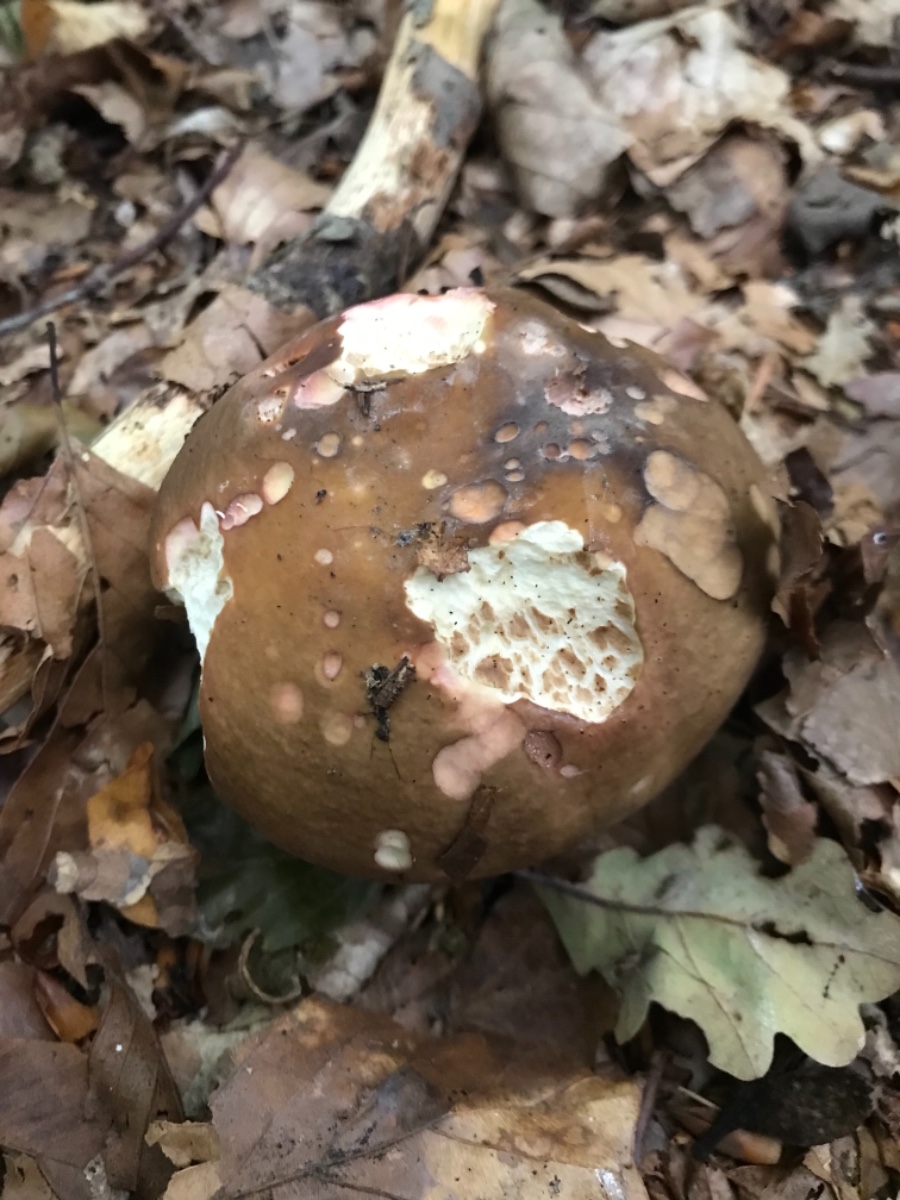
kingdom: Fungi
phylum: Basidiomycota
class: Agaricomycetes
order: Russulales
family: Russulaceae
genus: Russula
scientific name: Russula graveolens
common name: bugtet skørhat
